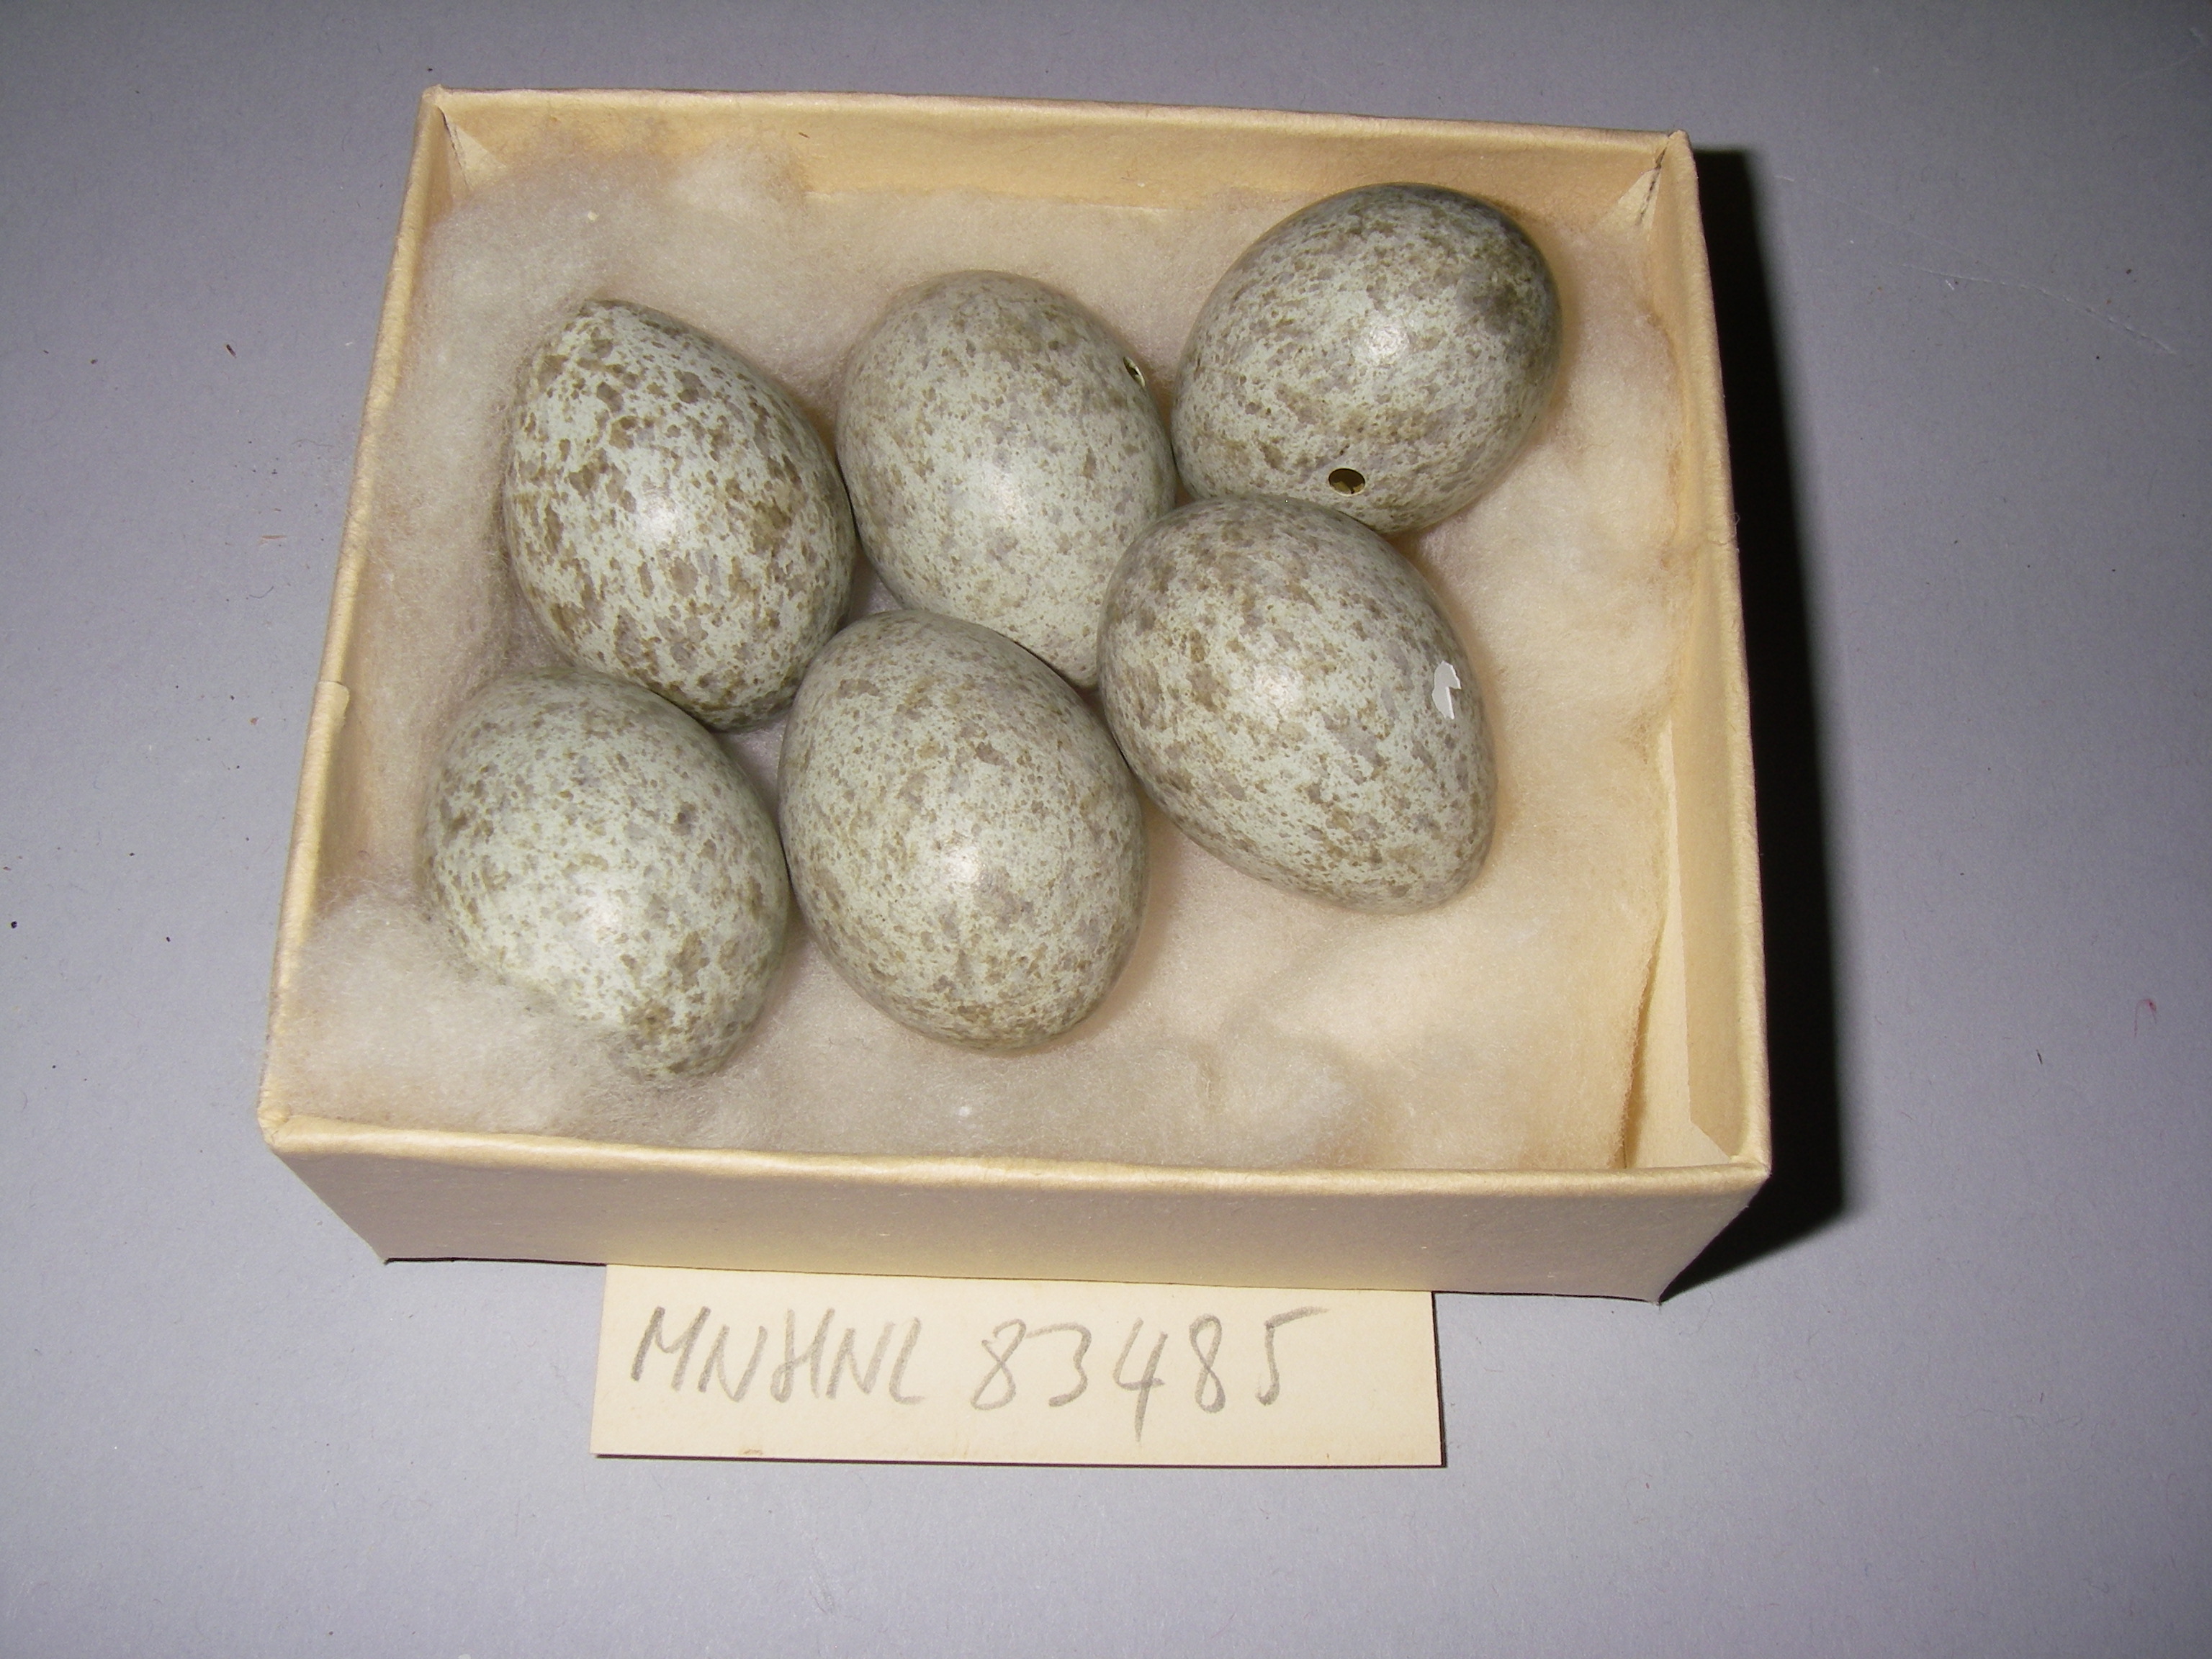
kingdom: Animalia
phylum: Chordata
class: Aves
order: Passeriformes
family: Corvidae
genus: Pica
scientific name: Pica pica
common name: Eurasian magpie
